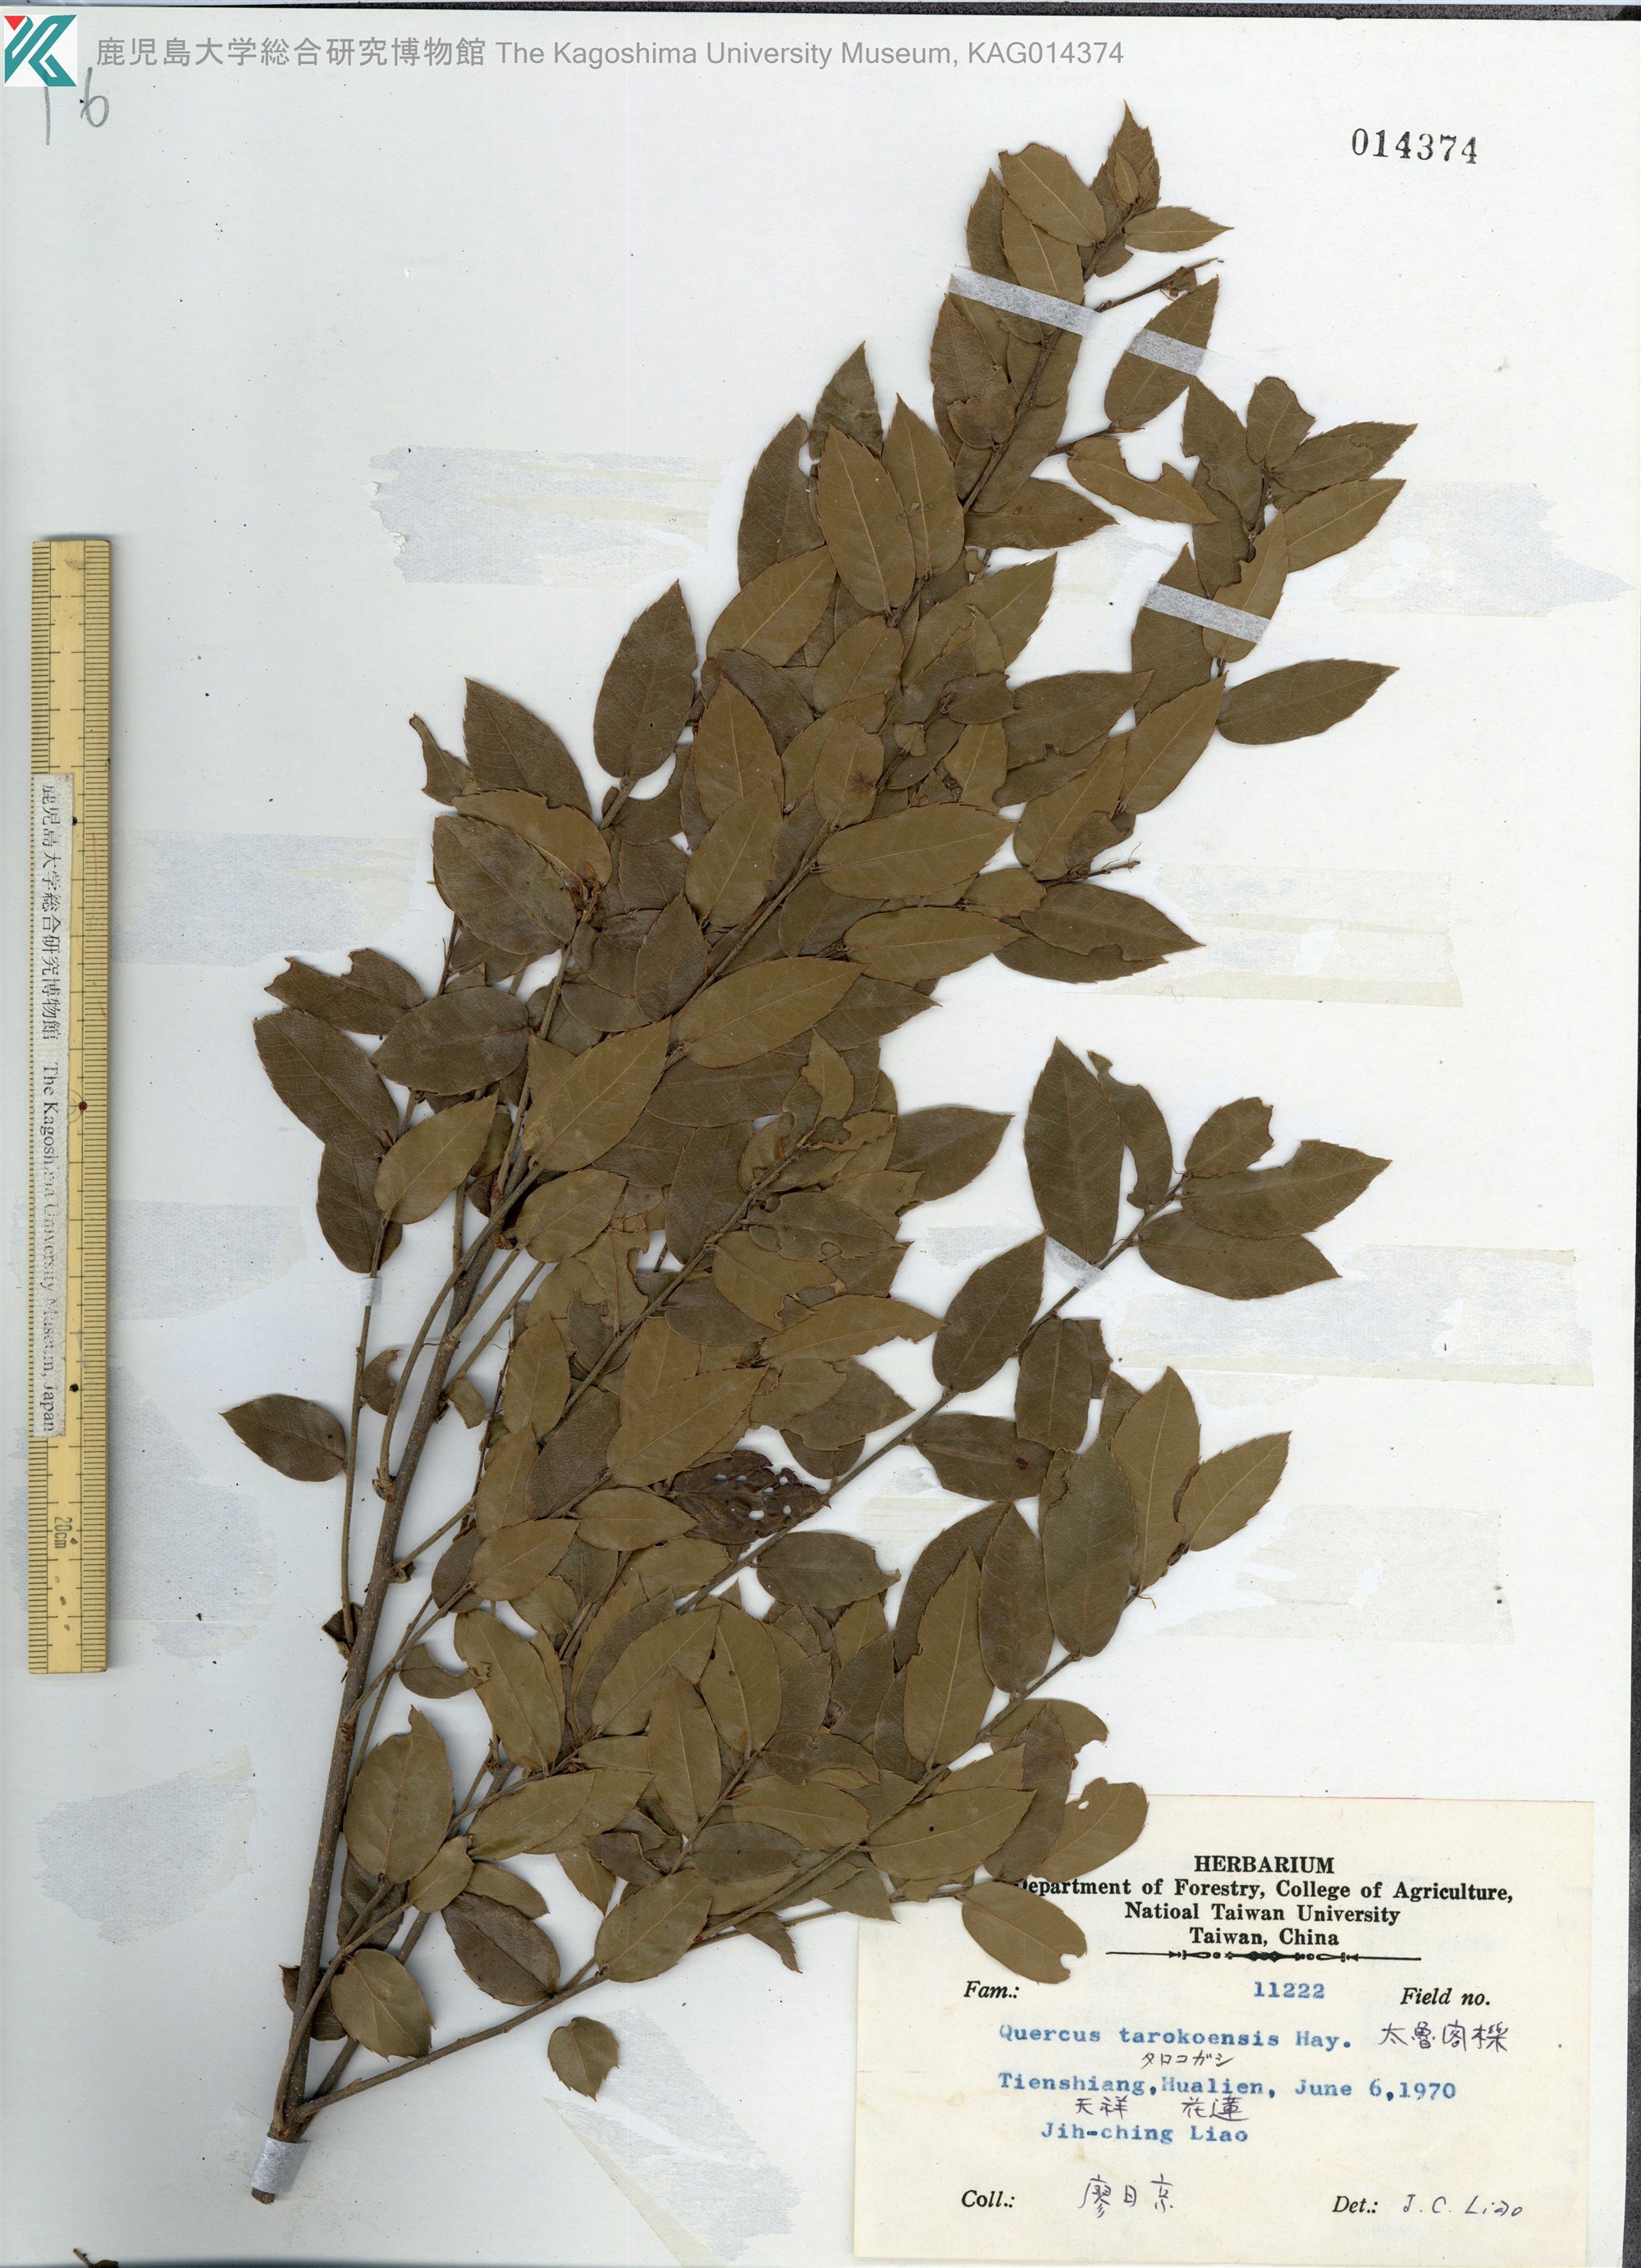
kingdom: Plantae
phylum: Tracheophyta
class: Magnoliopsida
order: Fagales
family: Fagaceae
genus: Quercus
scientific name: Quercus tarokoensis
